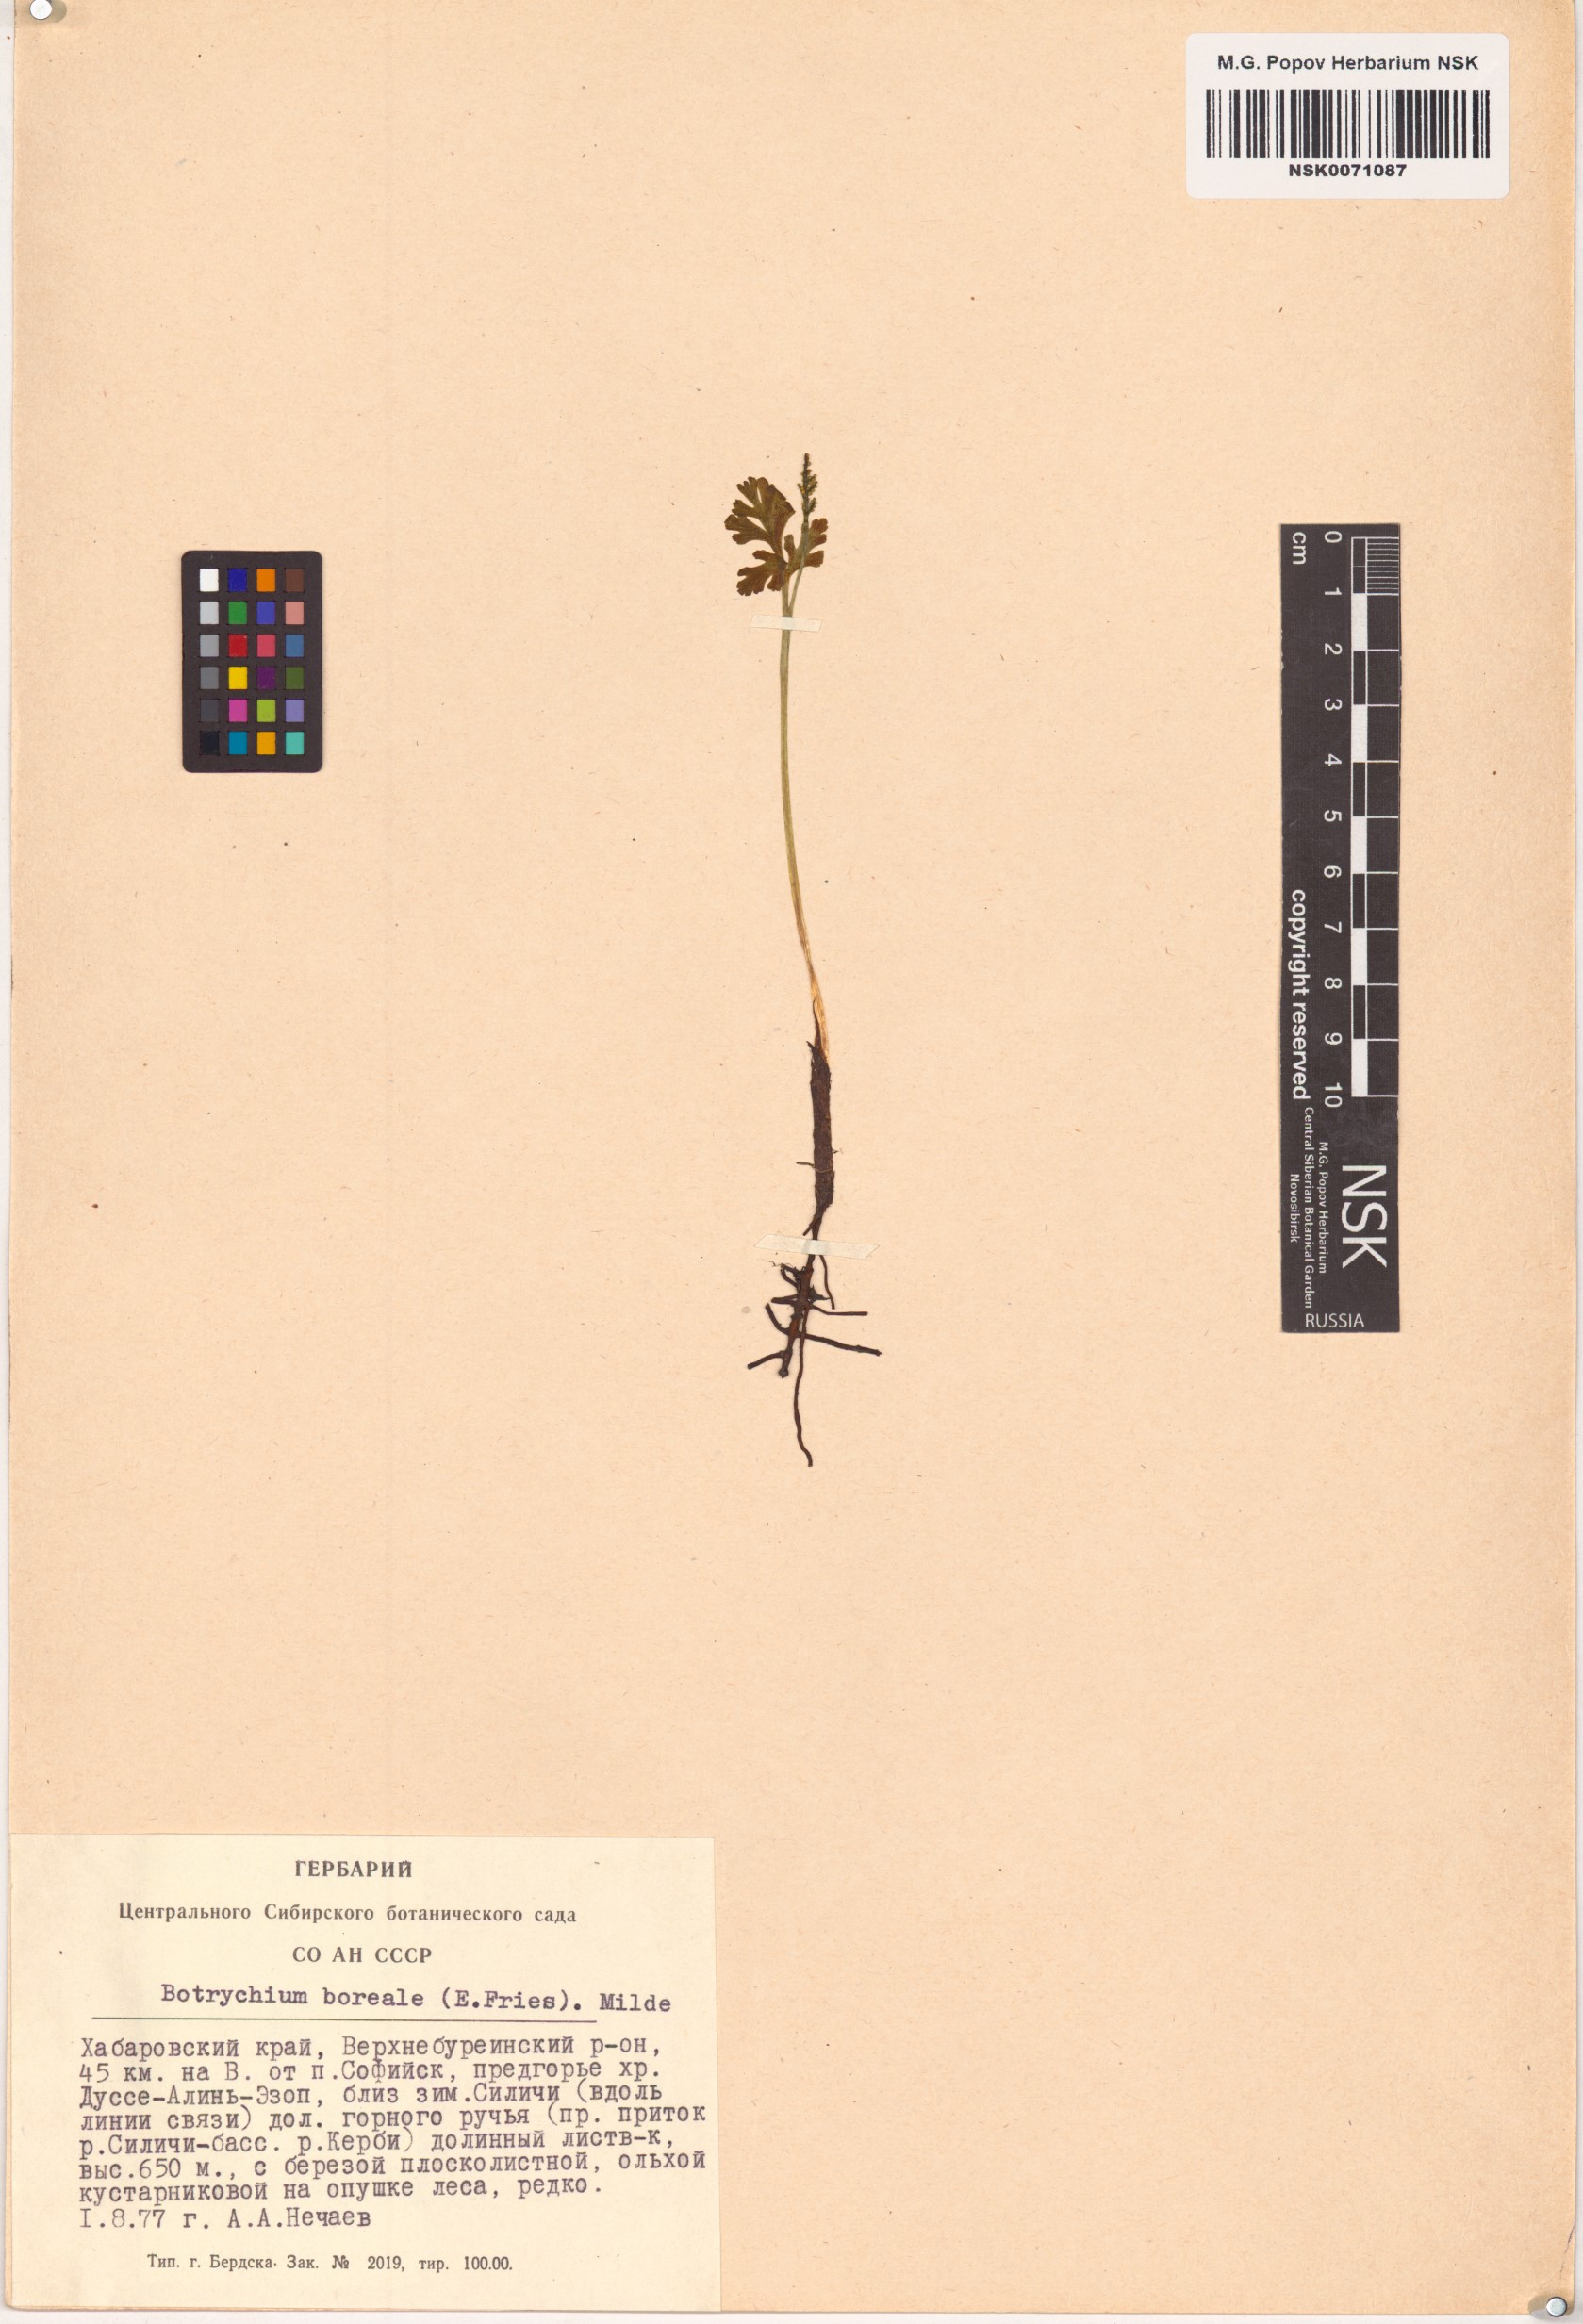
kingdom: Plantae
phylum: Tracheophyta
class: Polypodiopsida
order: Ophioglossales
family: Ophioglossaceae
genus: Botrychium
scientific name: Botrychium boreale
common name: Boreal moonwort
